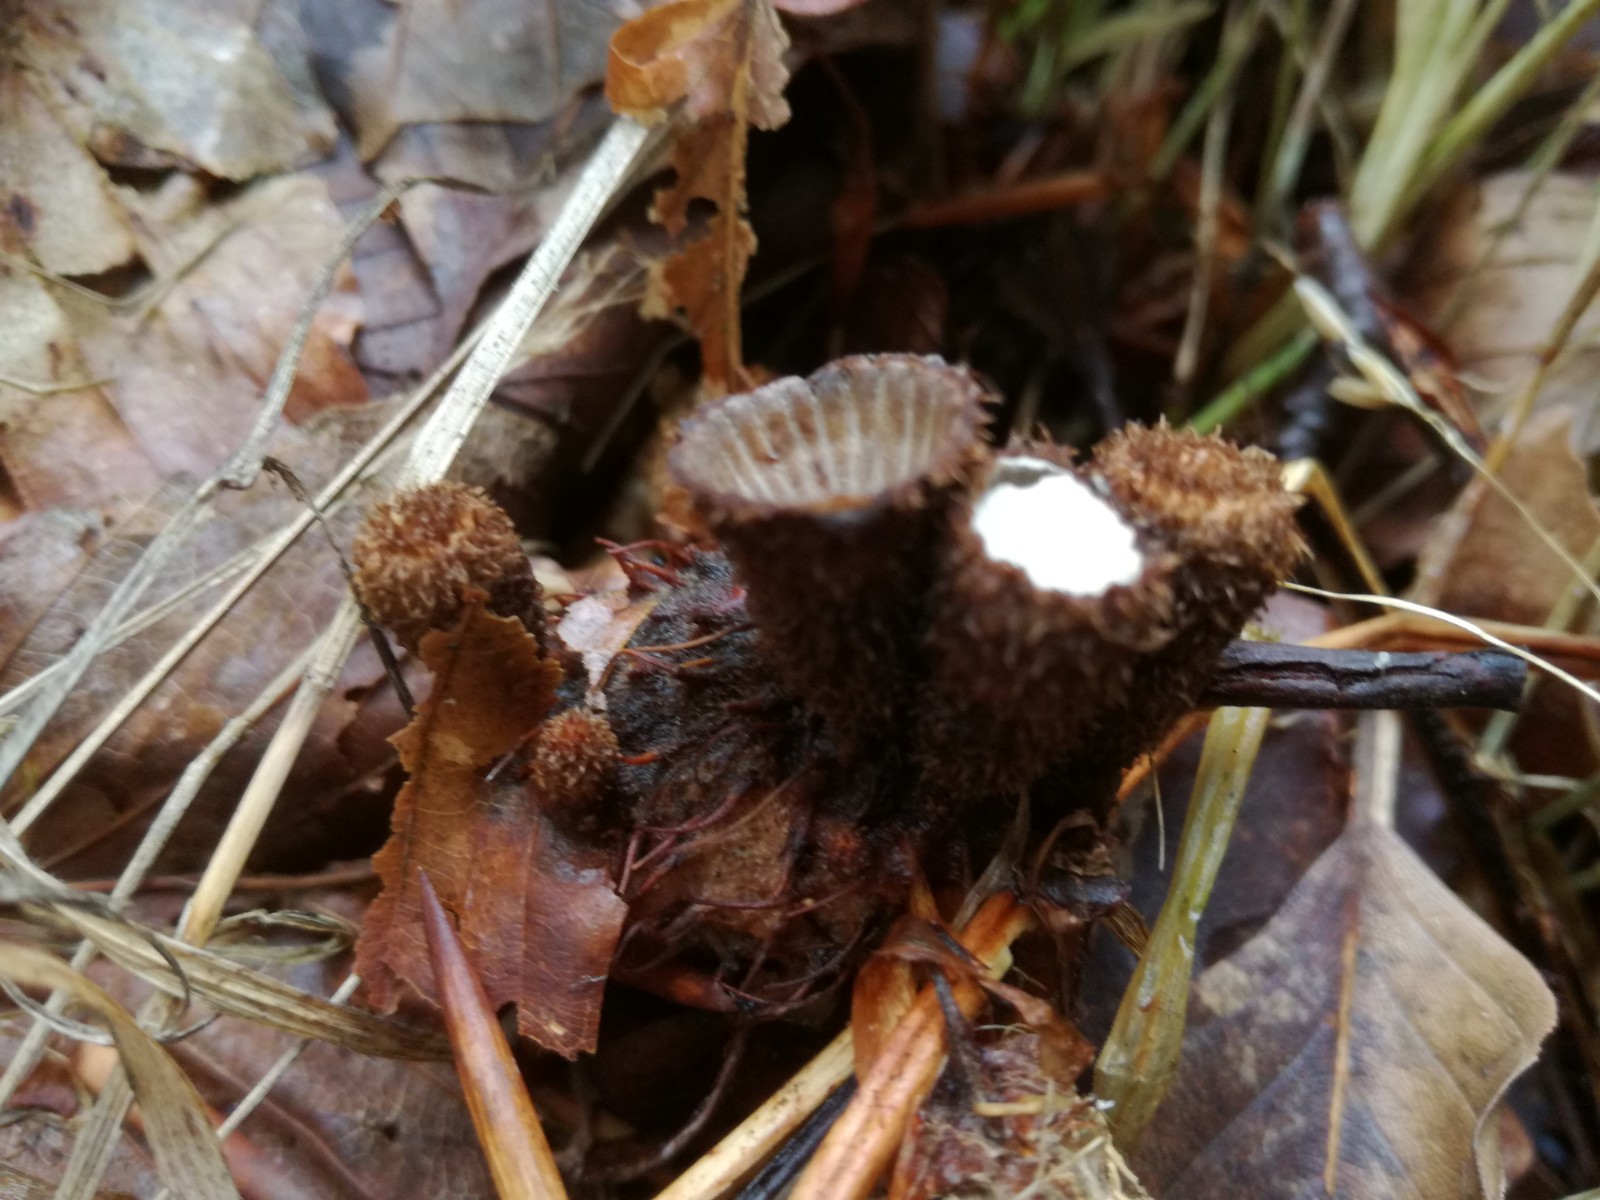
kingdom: Fungi
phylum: Basidiomycota
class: Agaricomycetes
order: Agaricales
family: Agaricaceae
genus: Cyathus
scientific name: Cyathus striatus
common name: stribet redesvamp
